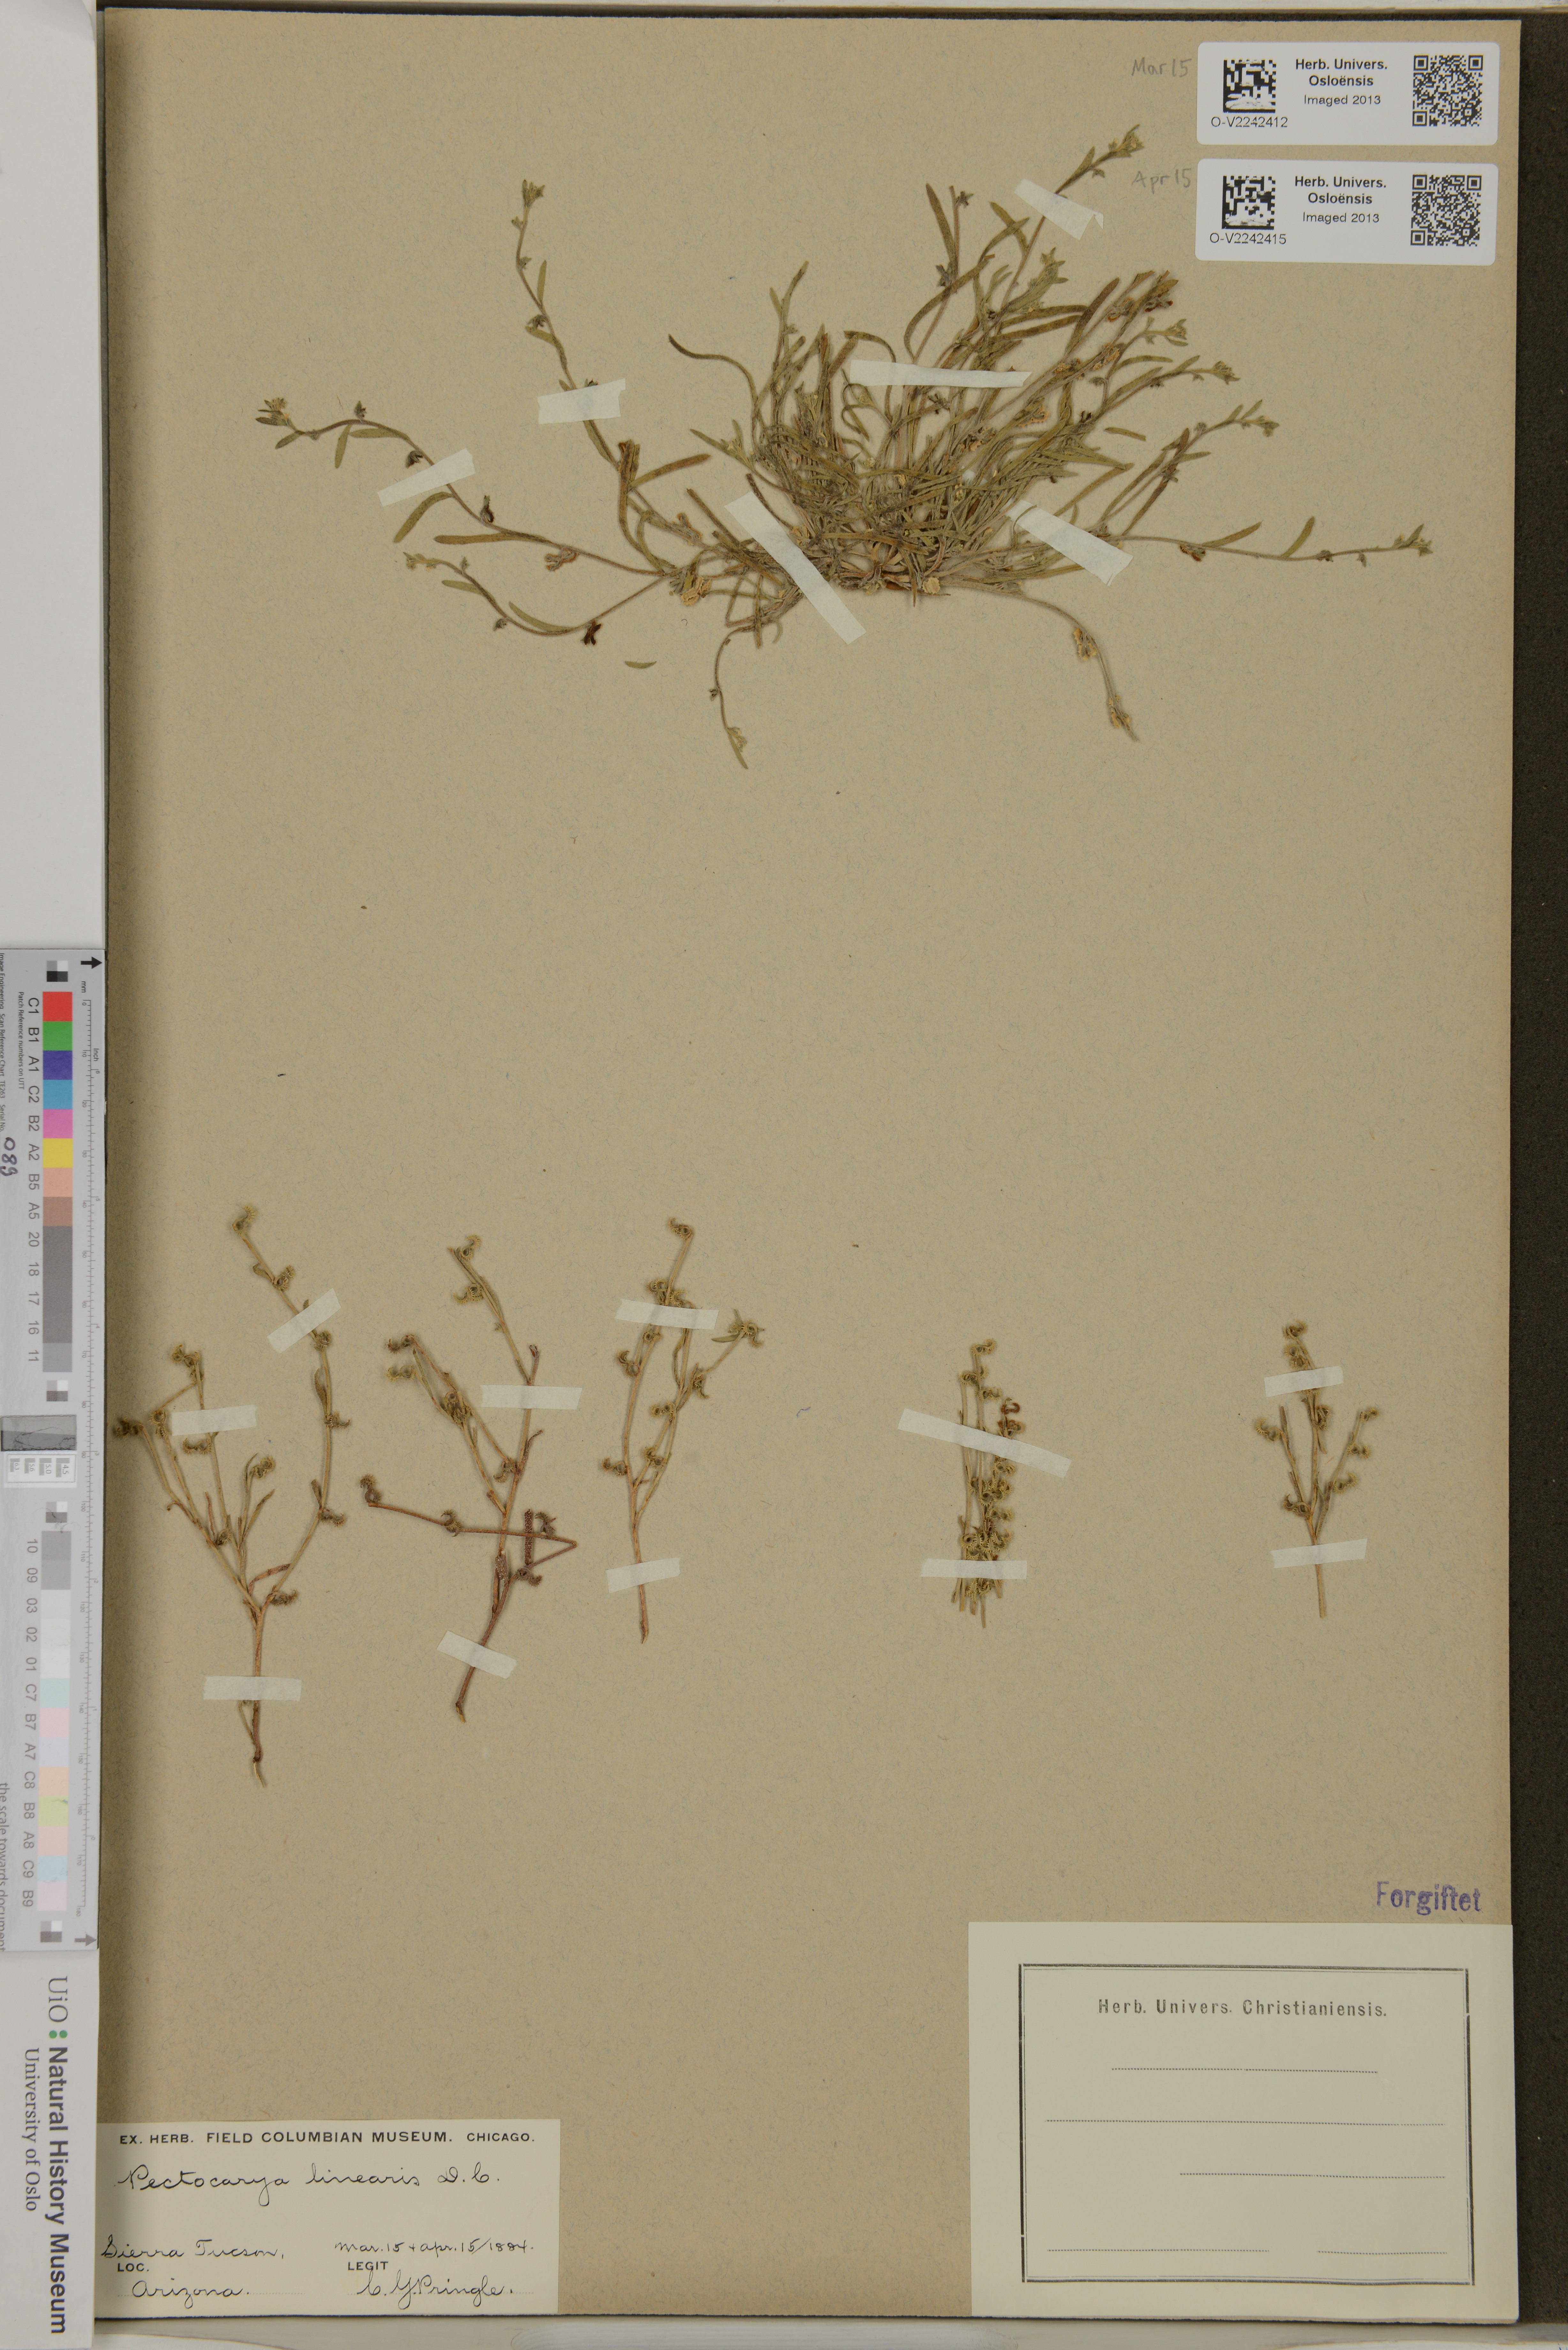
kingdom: Plantae
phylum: Tracheophyta
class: Magnoliopsida
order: Boraginales
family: Boraginaceae
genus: Pectocarya
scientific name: Pectocarya linearis
